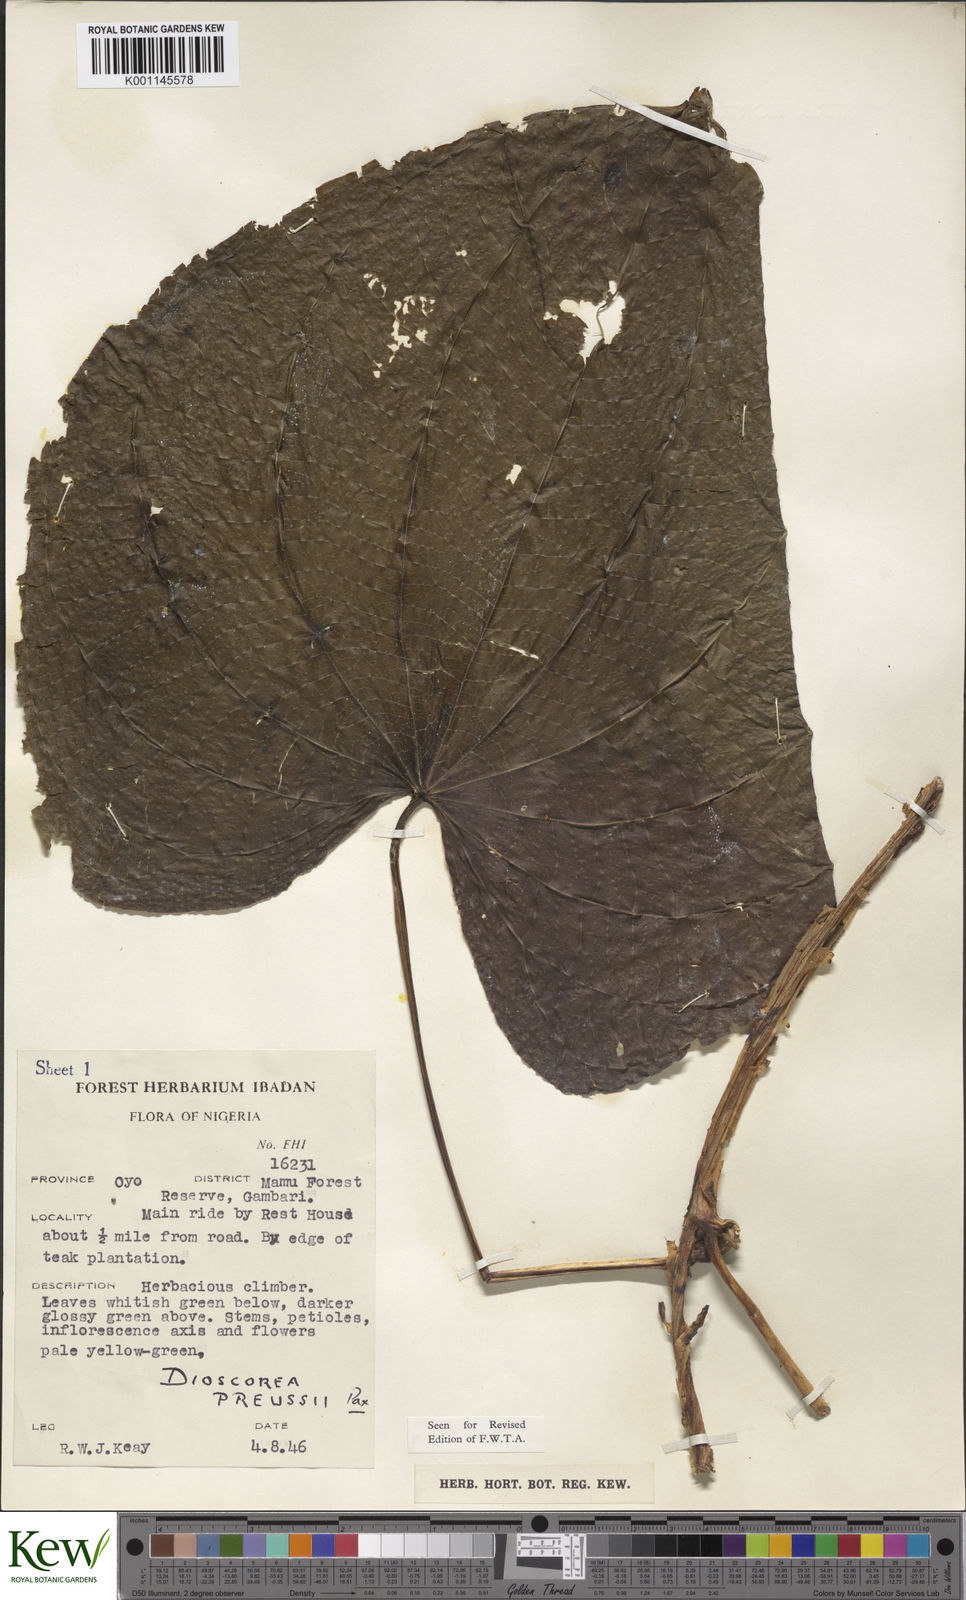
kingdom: Plantae
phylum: Tracheophyta
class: Liliopsida
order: Dioscoreales
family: Dioscoreaceae
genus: Dioscorea
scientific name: Dioscorea preussii
